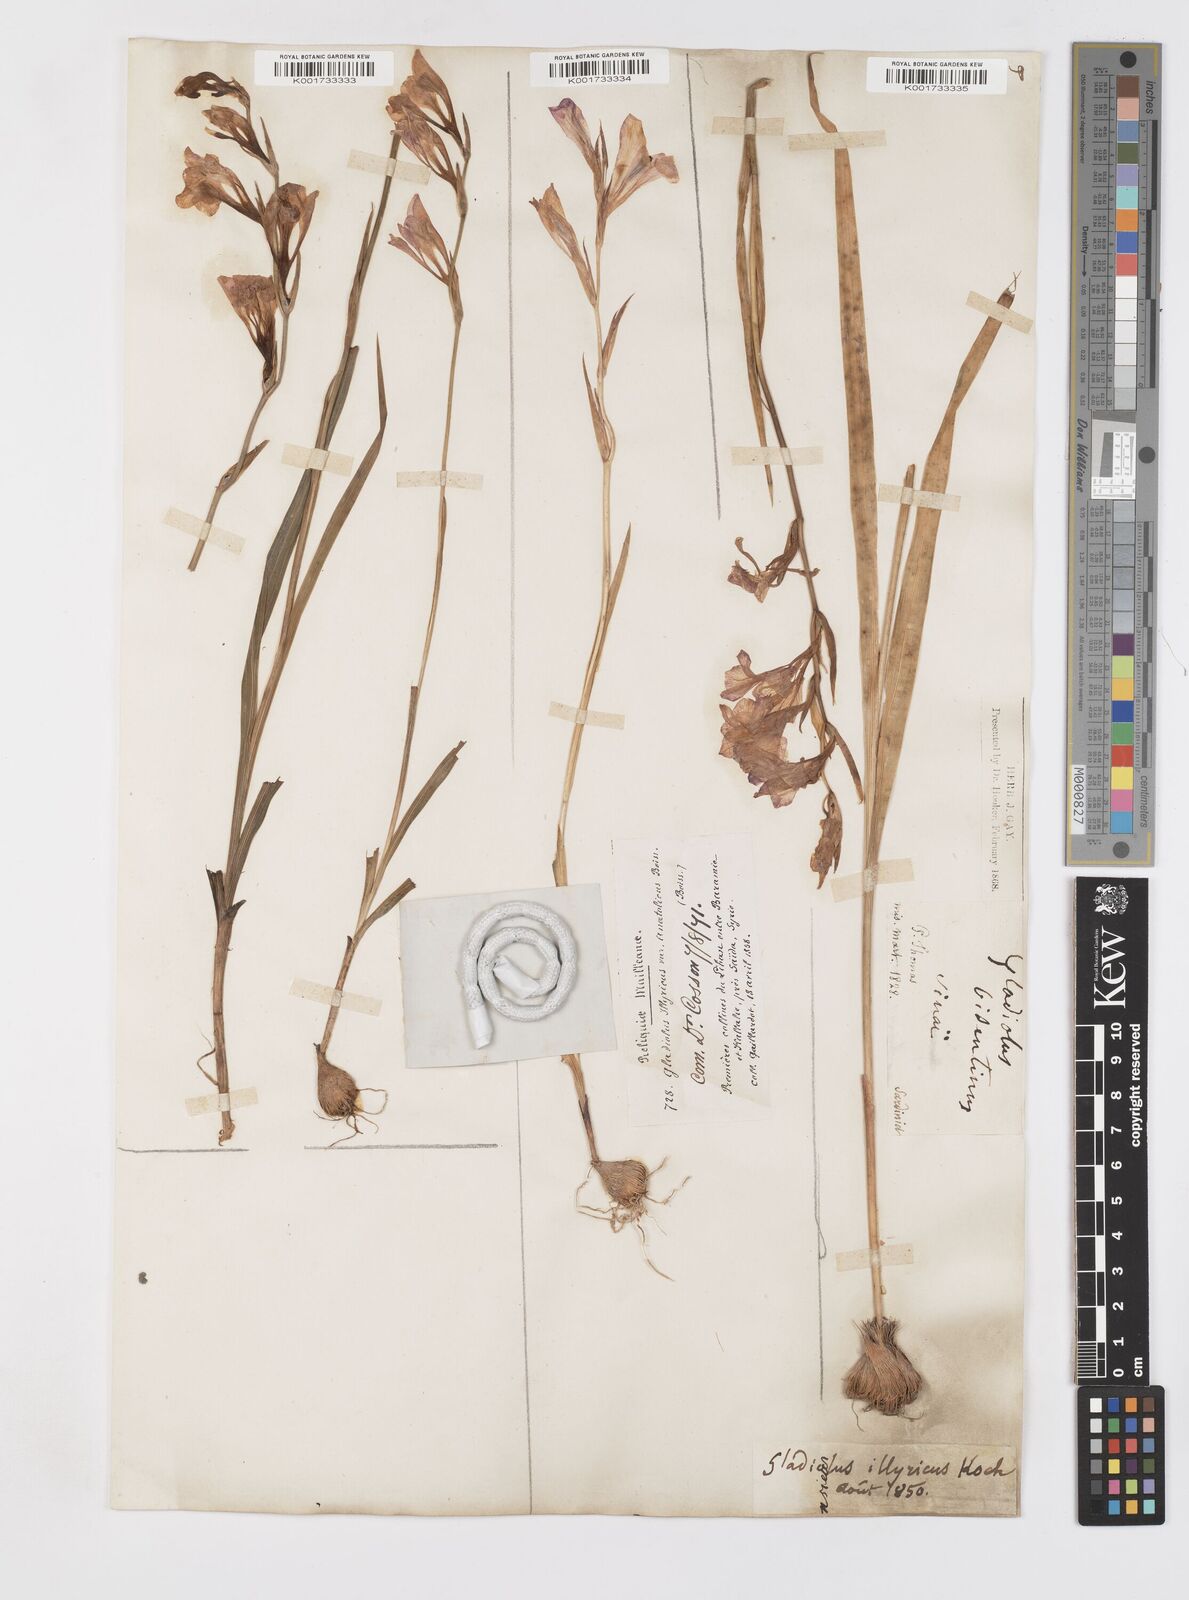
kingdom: Plantae
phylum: Tracheophyta
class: Liliopsida
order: Asparagales
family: Iridaceae
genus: Gladiolus
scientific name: Gladiolus illyricus
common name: Wild gladiolus
